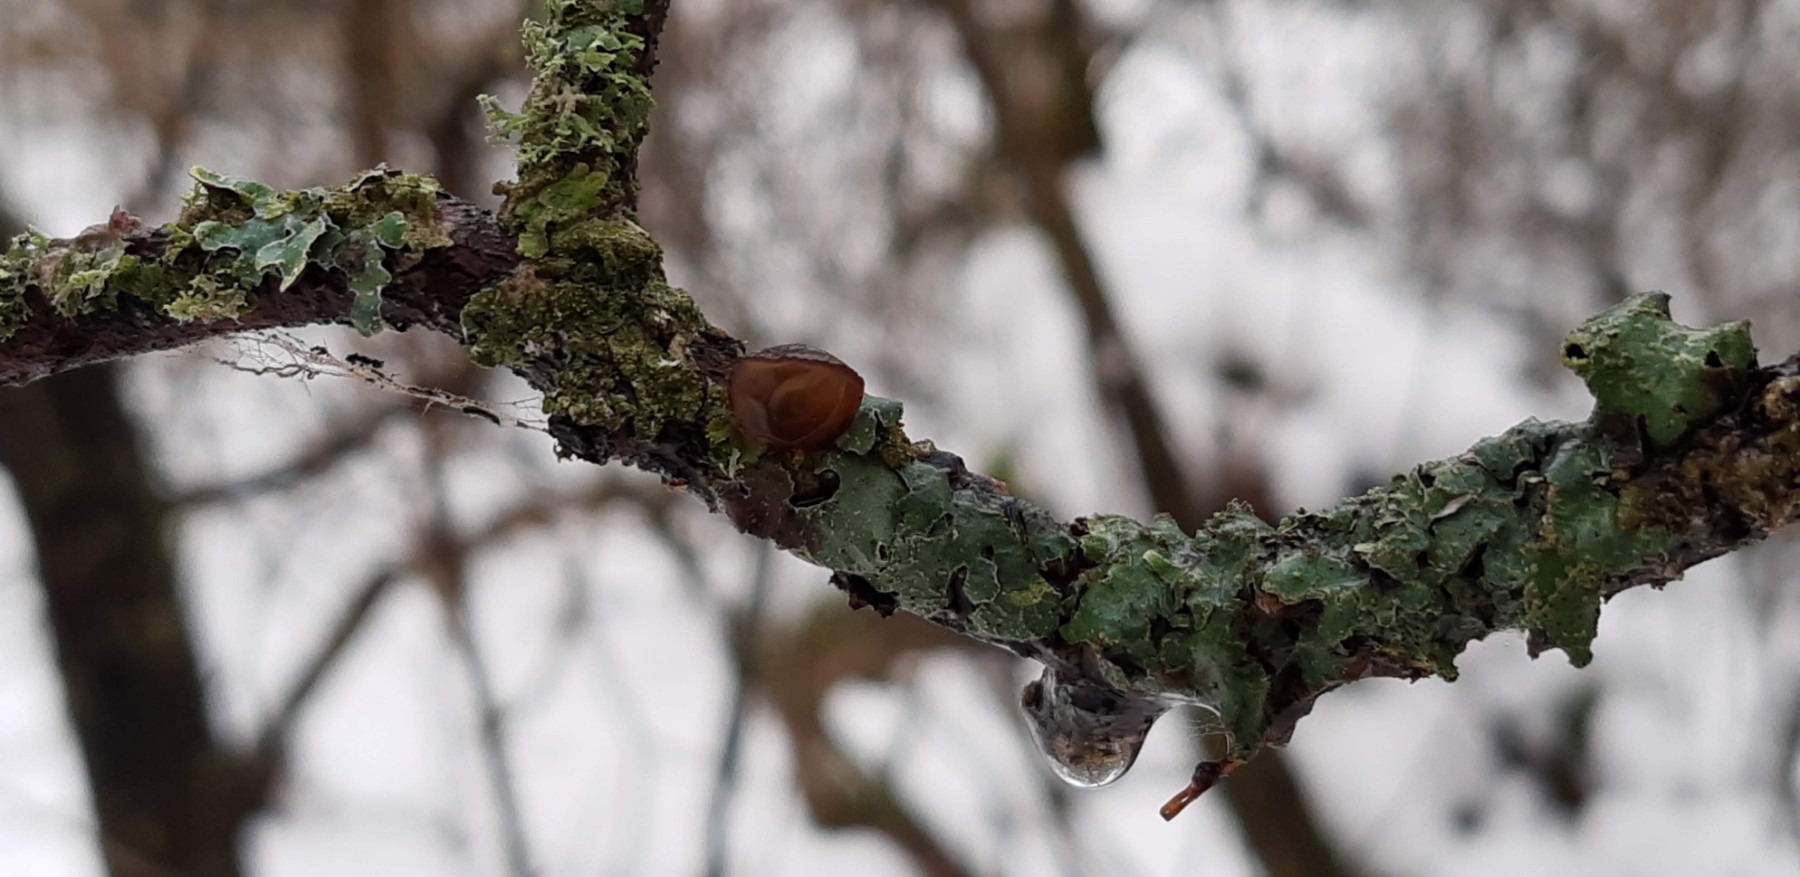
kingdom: Fungi
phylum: Basidiomycota
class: Agaricomycetes
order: Auriculariales
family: Auriculariaceae
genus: Exidia
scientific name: Exidia recisa
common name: pile-bævretop
